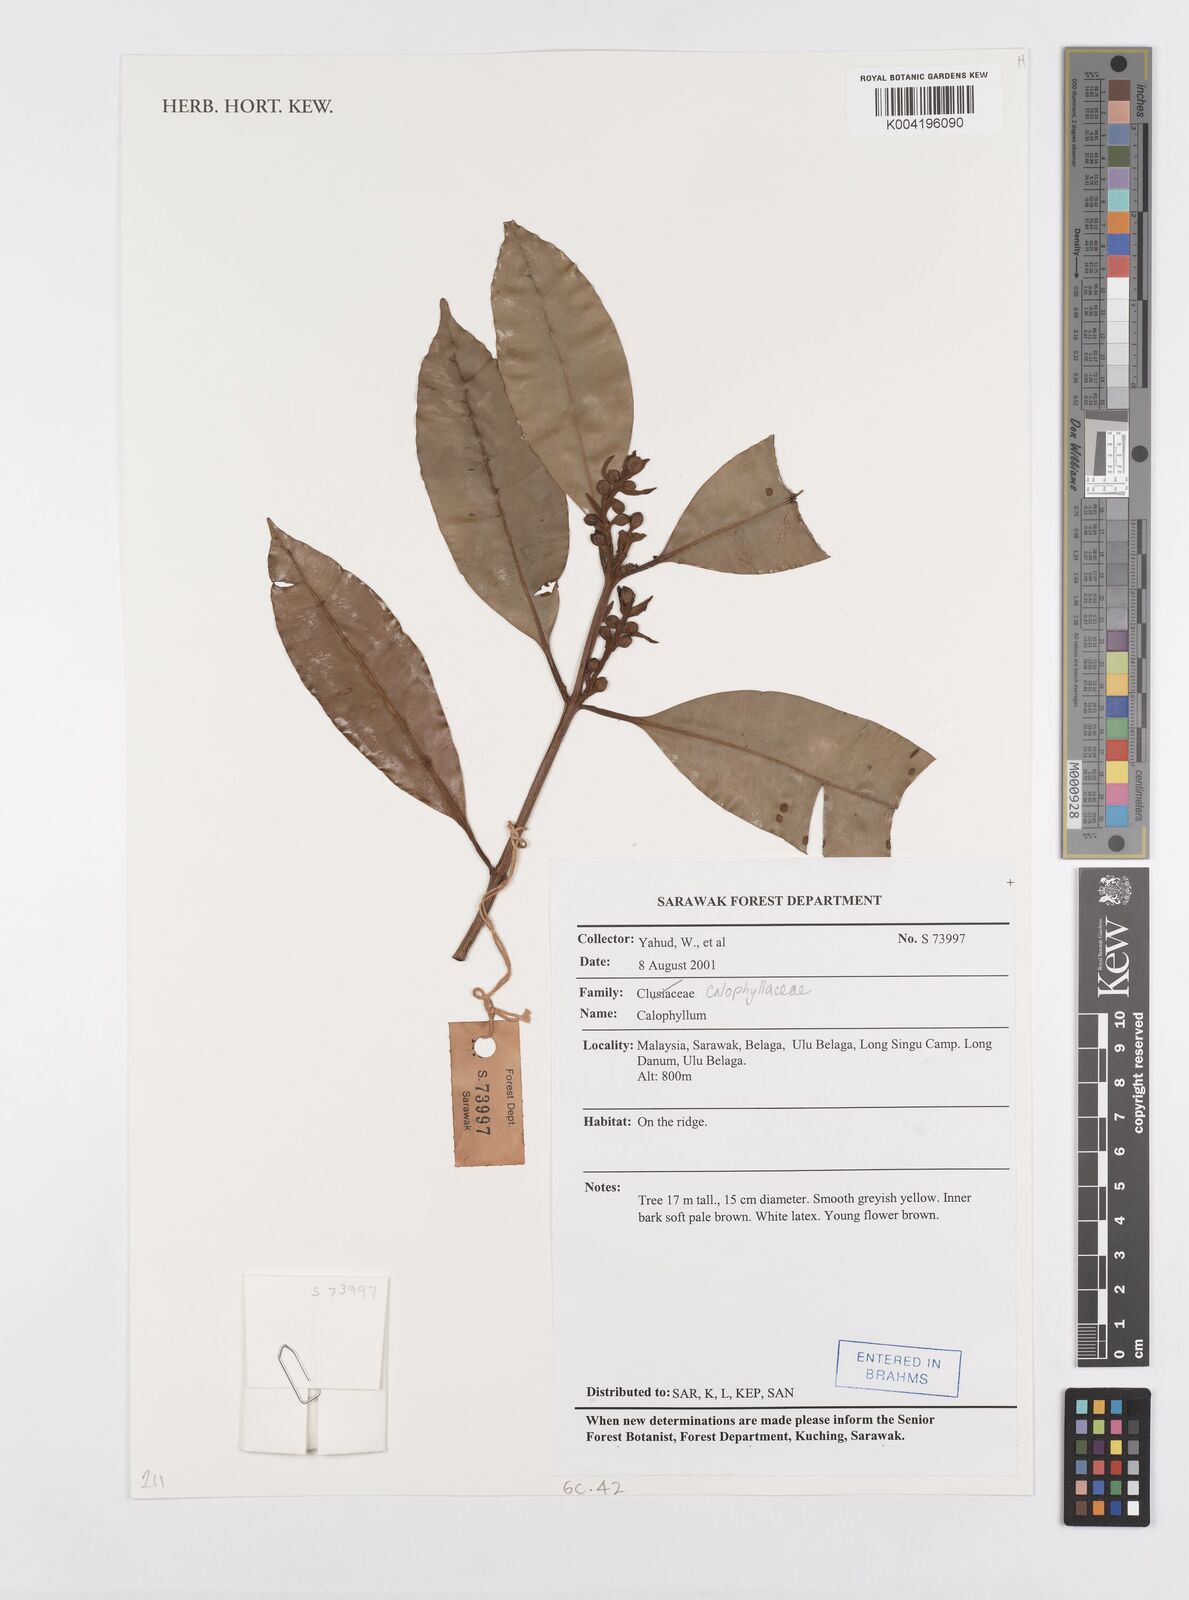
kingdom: Plantae
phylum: Tracheophyta
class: Magnoliopsida
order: Malpighiales
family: Calophyllaceae
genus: Calophyllum
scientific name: Calophyllum
